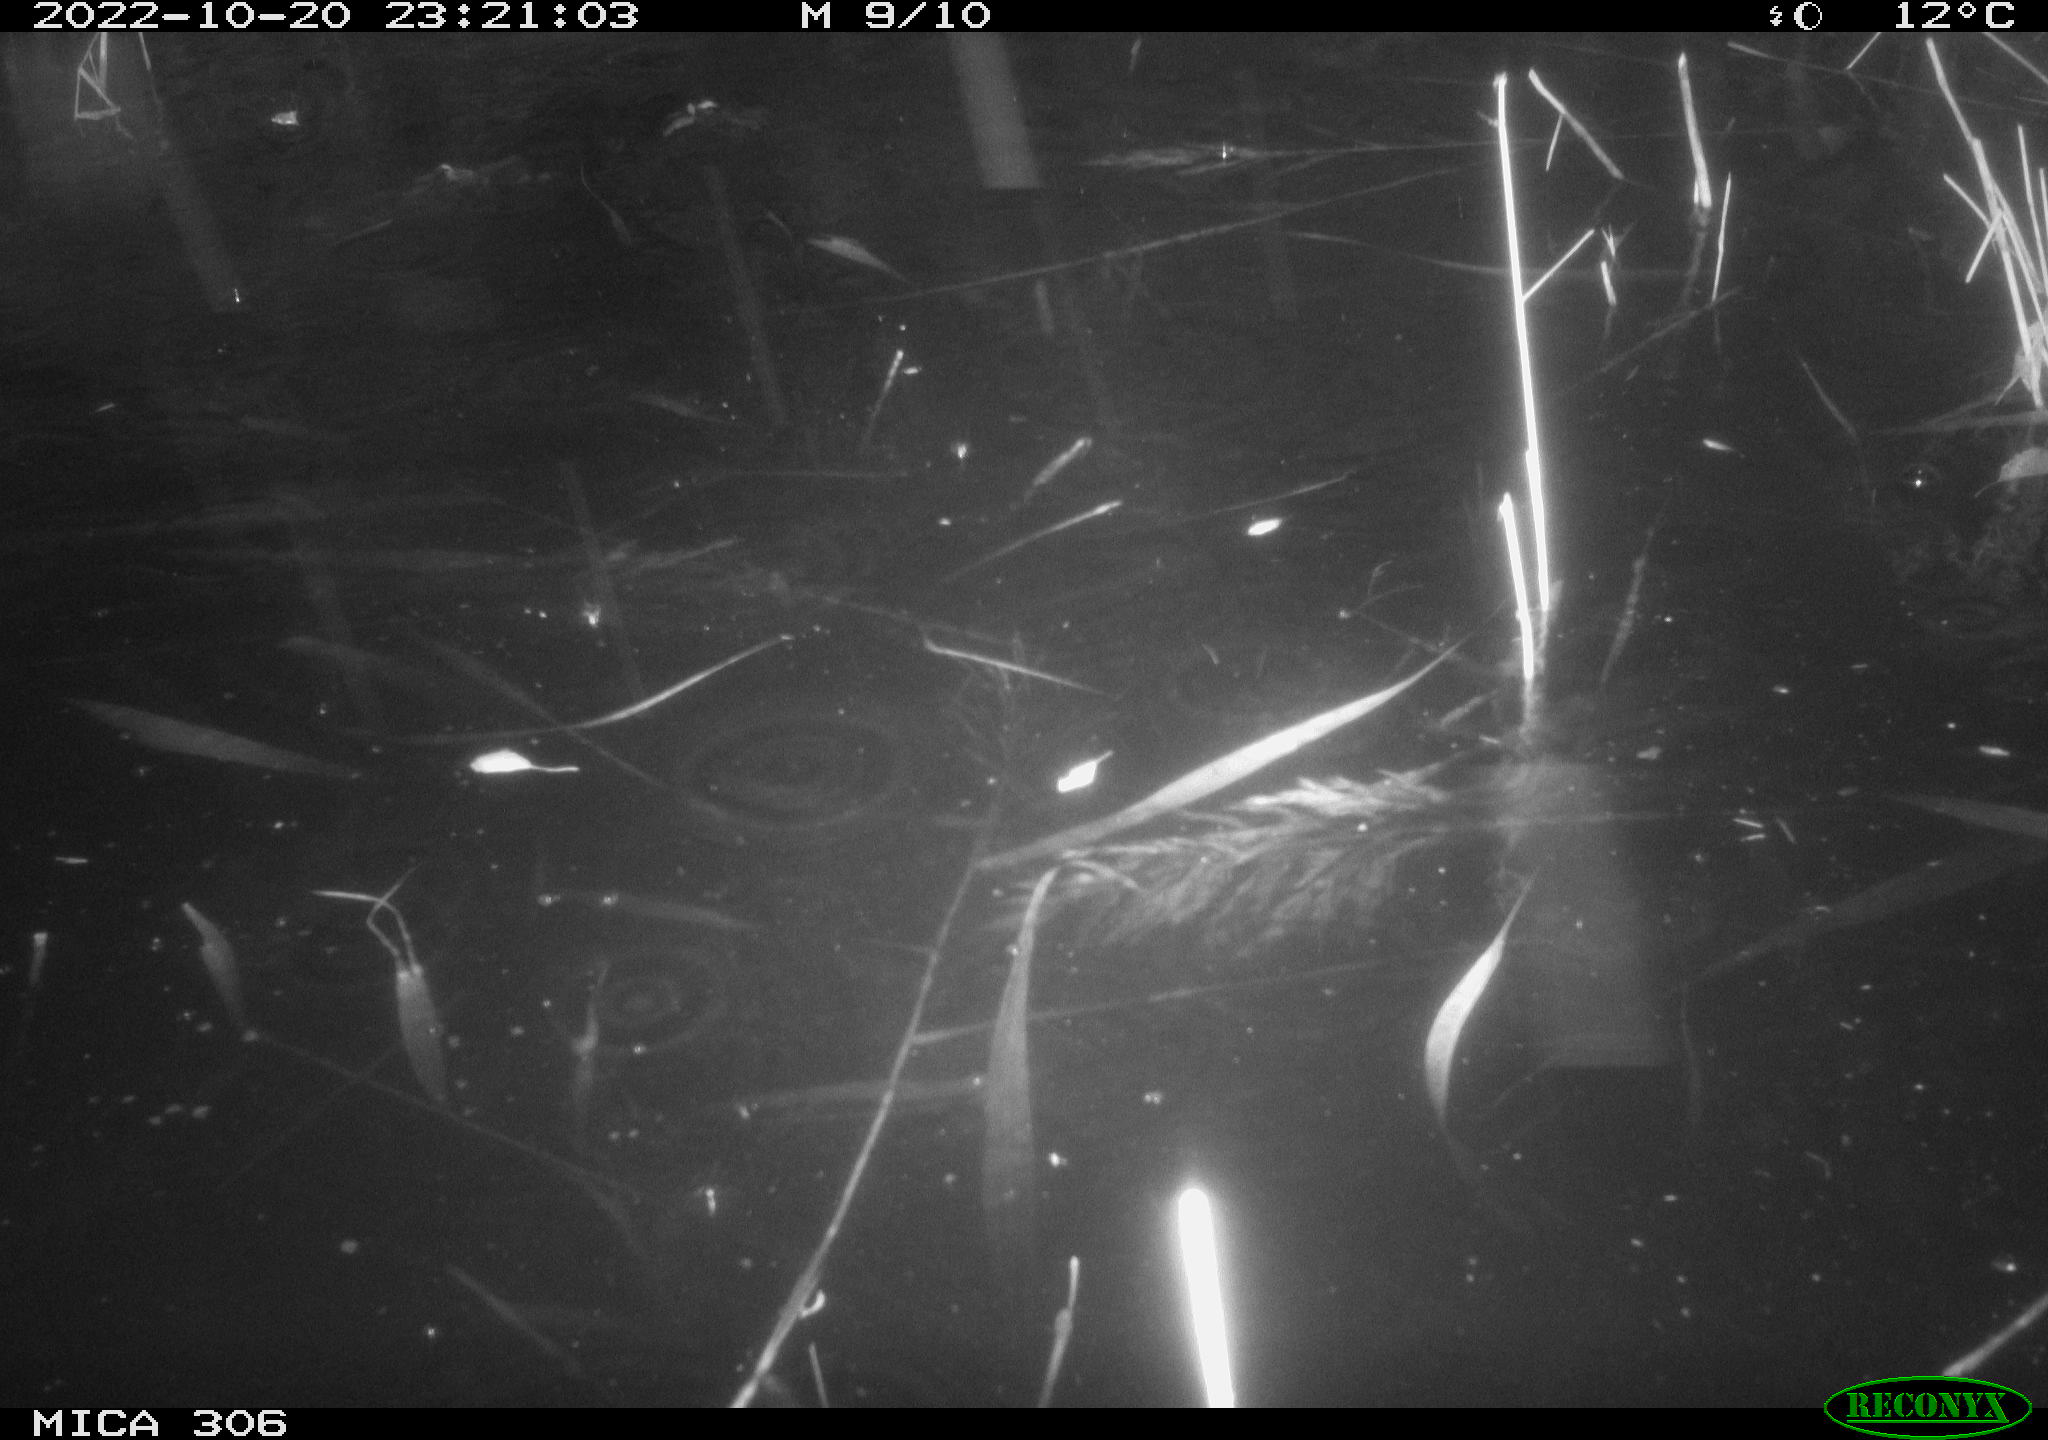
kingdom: Animalia
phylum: Chordata
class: Mammalia
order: Rodentia
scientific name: Rodentia
